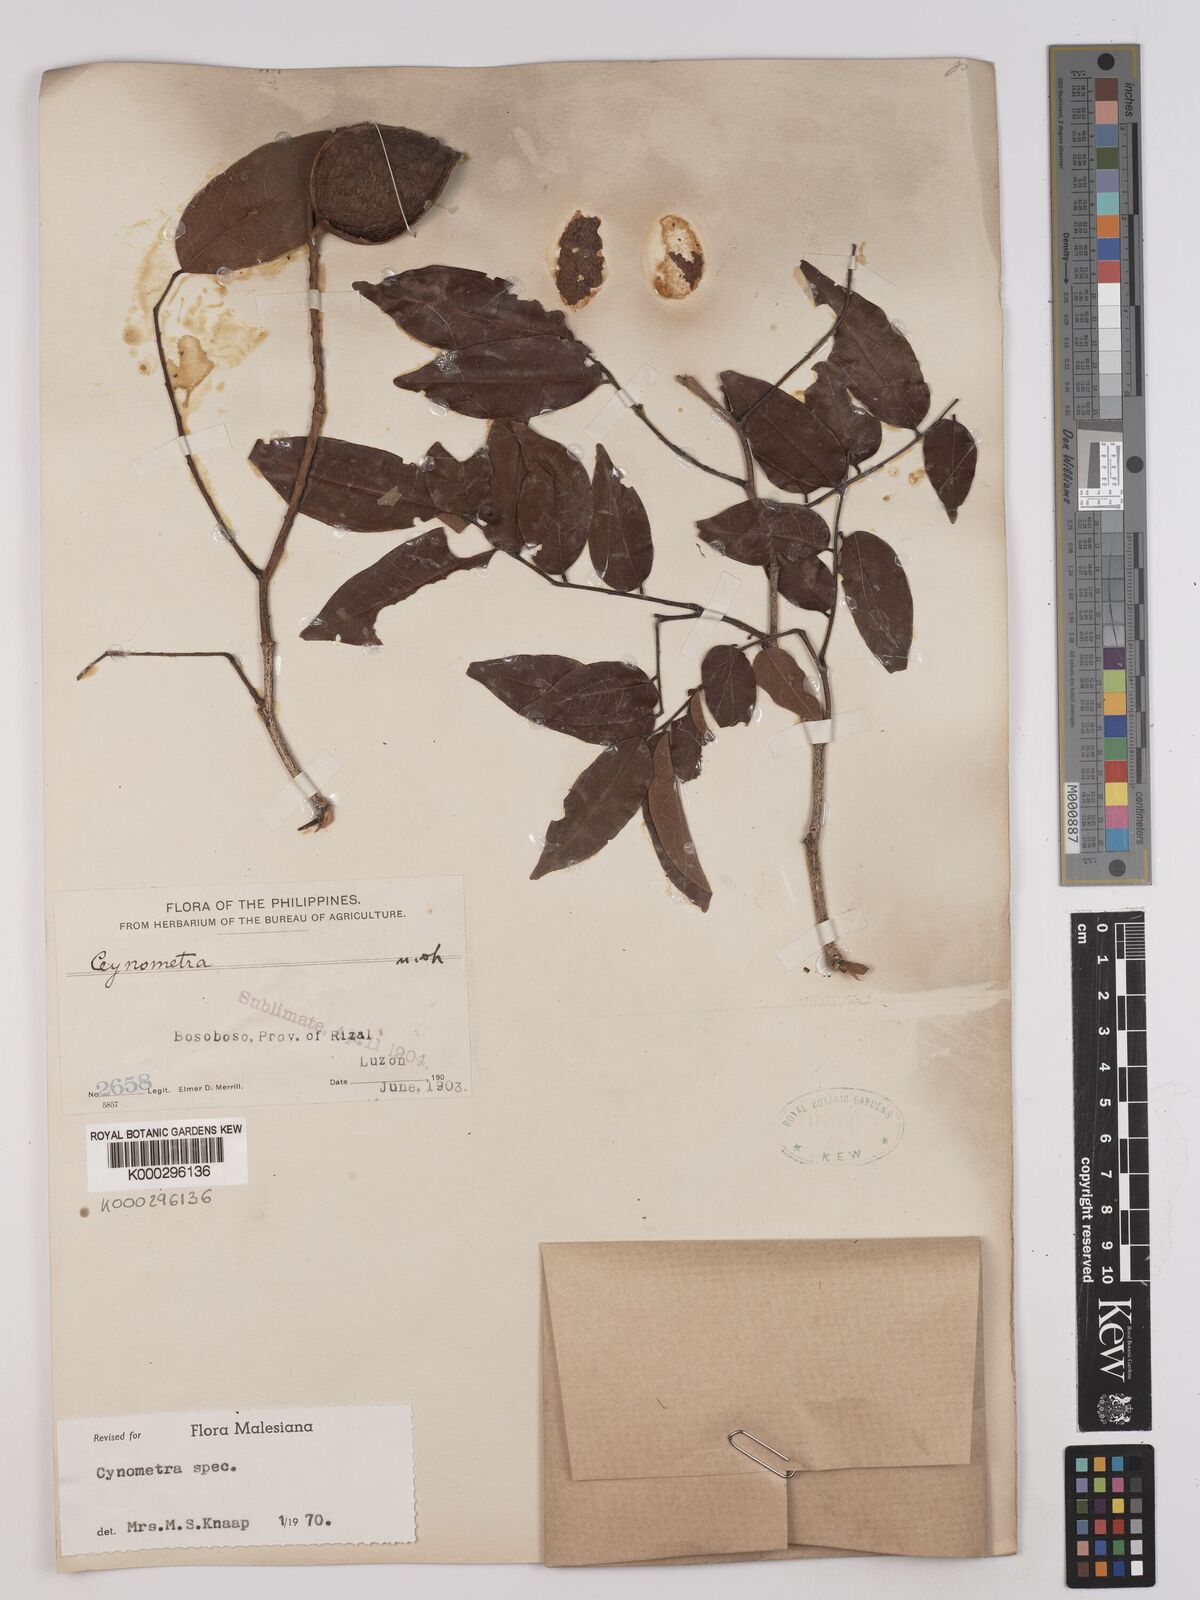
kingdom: Plantae
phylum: Tracheophyta
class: Magnoliopsida
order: Fabales
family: Fabaceae
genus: Cynometra
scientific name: Cynometra
